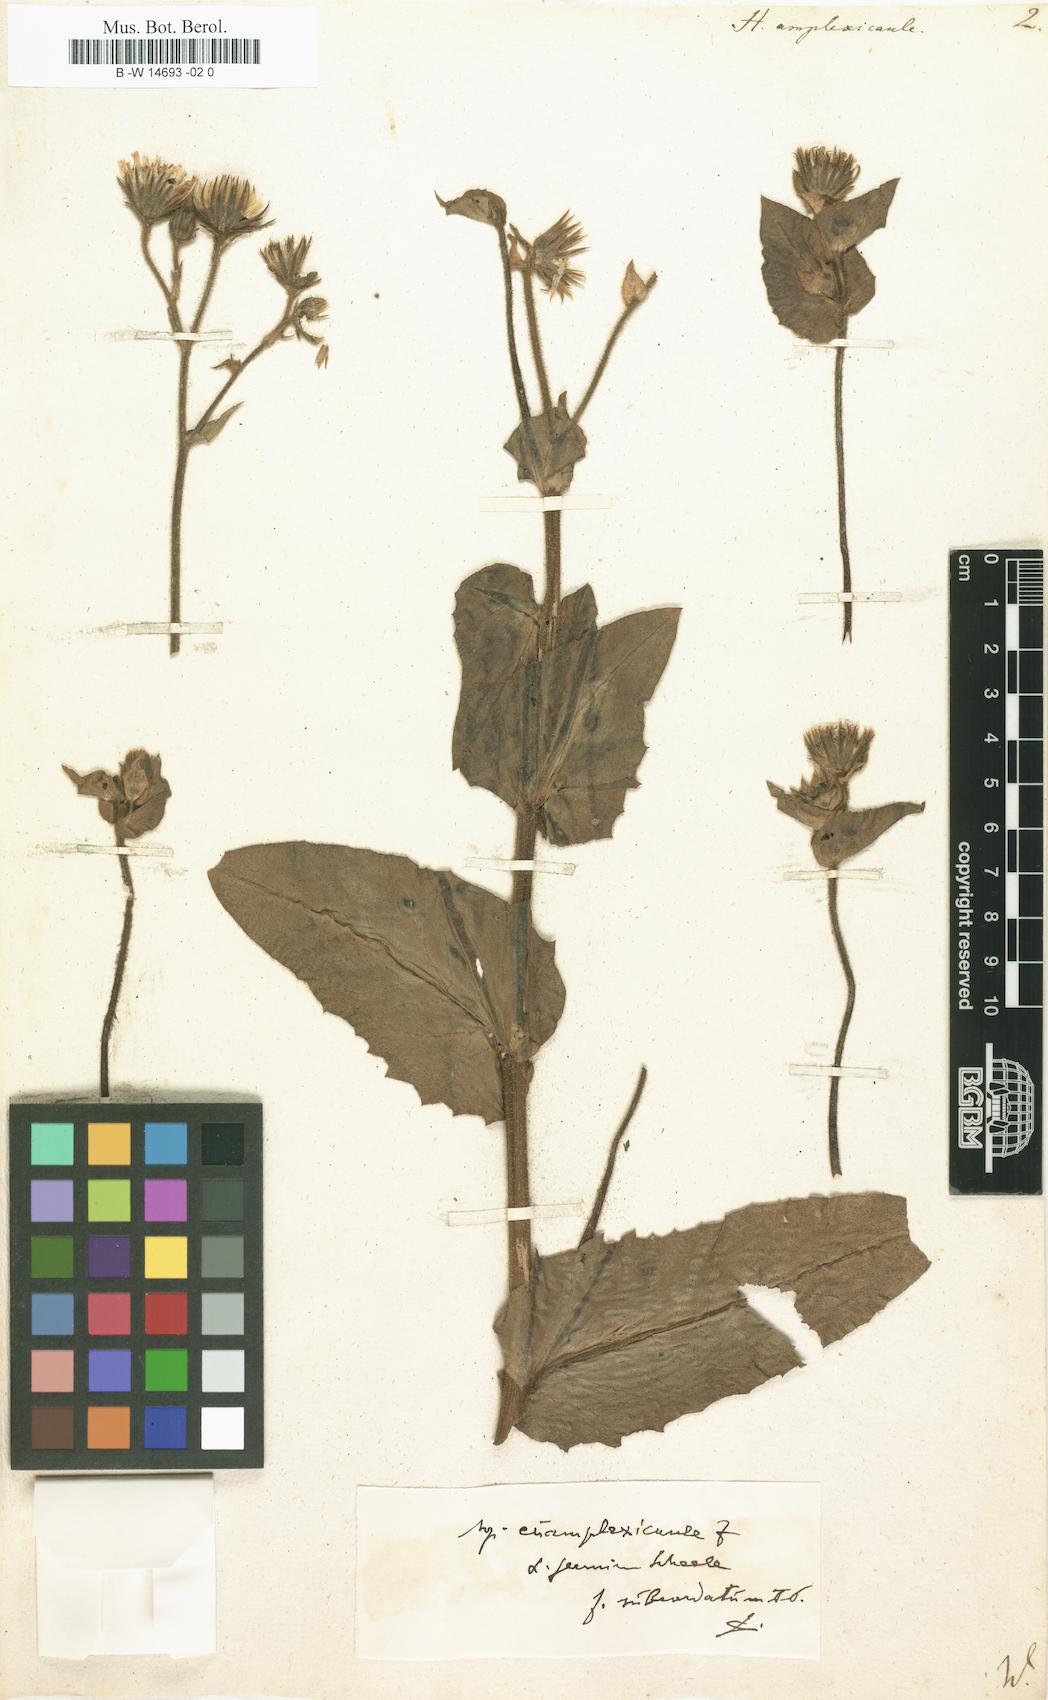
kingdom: Plantae
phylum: Tracheophyta
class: Magnoliopsida
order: Asterales
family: Asteraceae
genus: Hieracium
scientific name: Hieracium amplexicaule
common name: Sticky hawkweed
